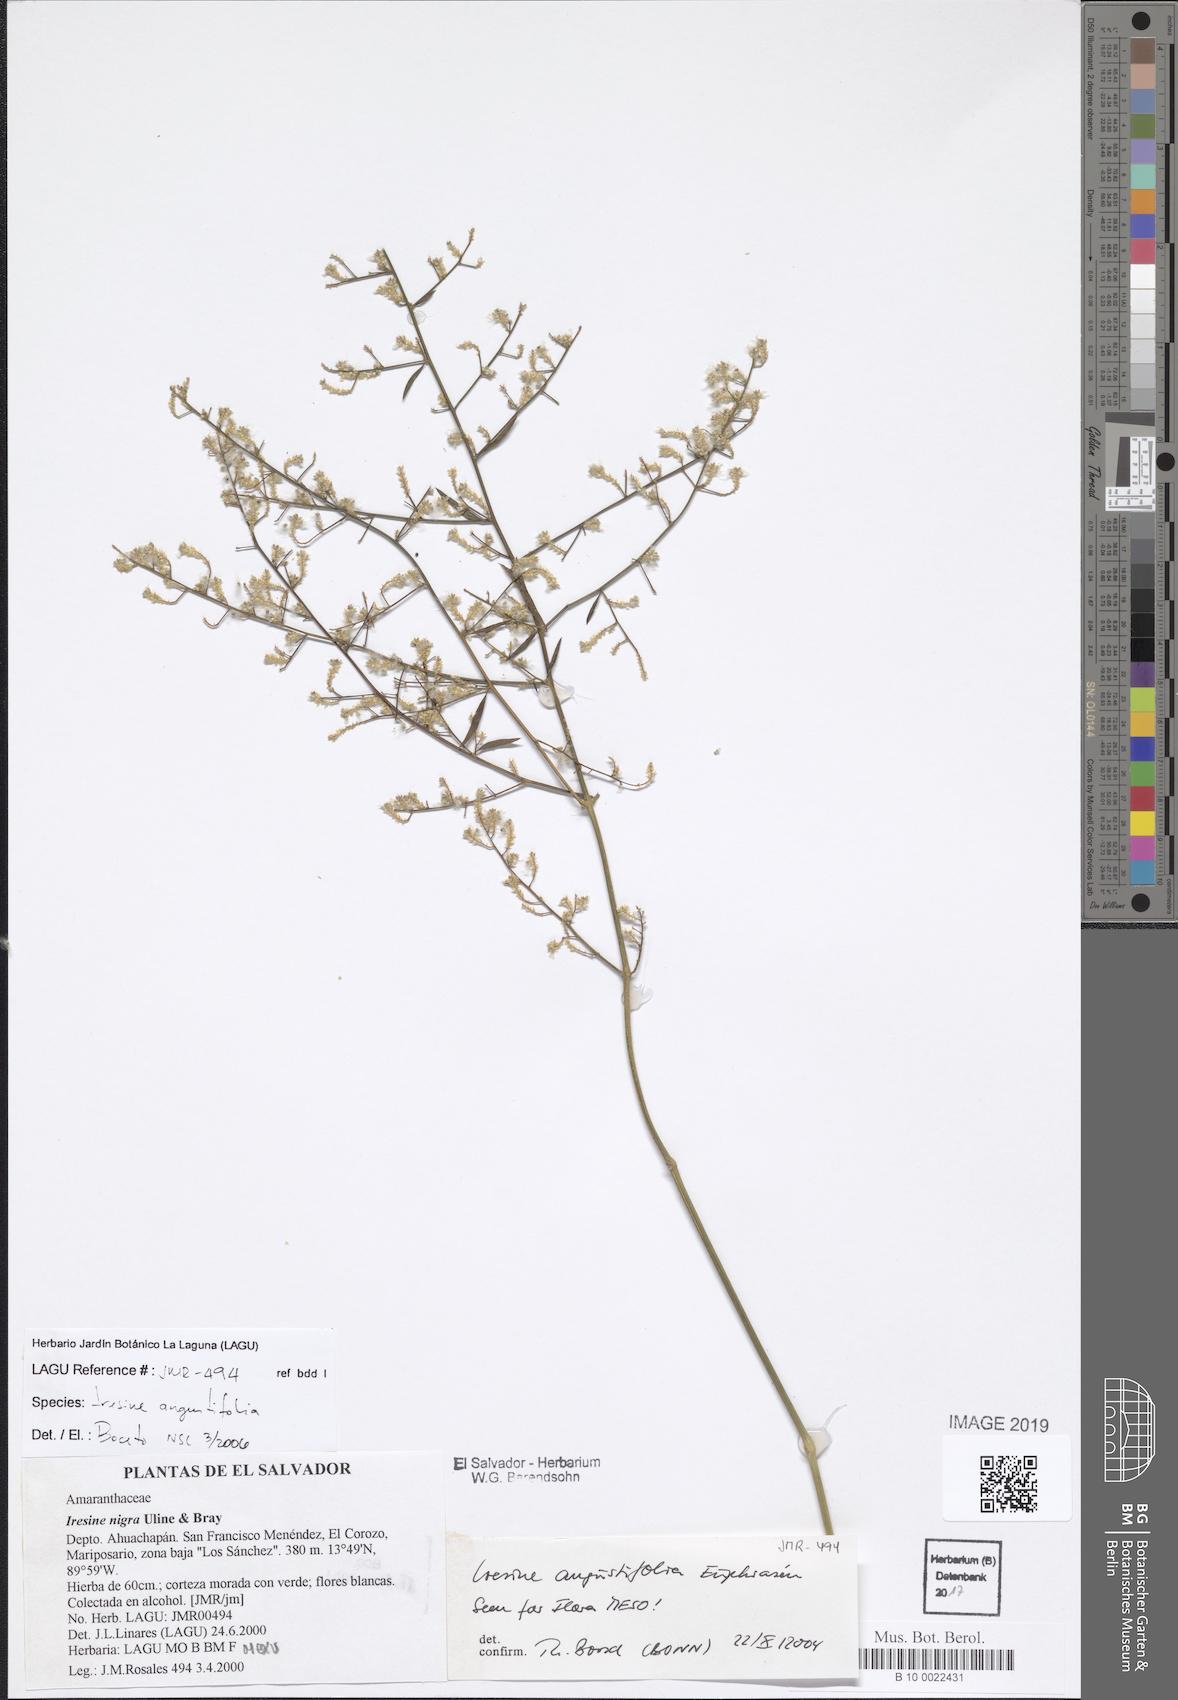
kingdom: Plantae
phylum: Tracheophyta
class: Magnoliopsida
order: Caryophyllales
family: Amaranthaceae
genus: Iresine
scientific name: Iresine angustifolia
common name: White snowplant
